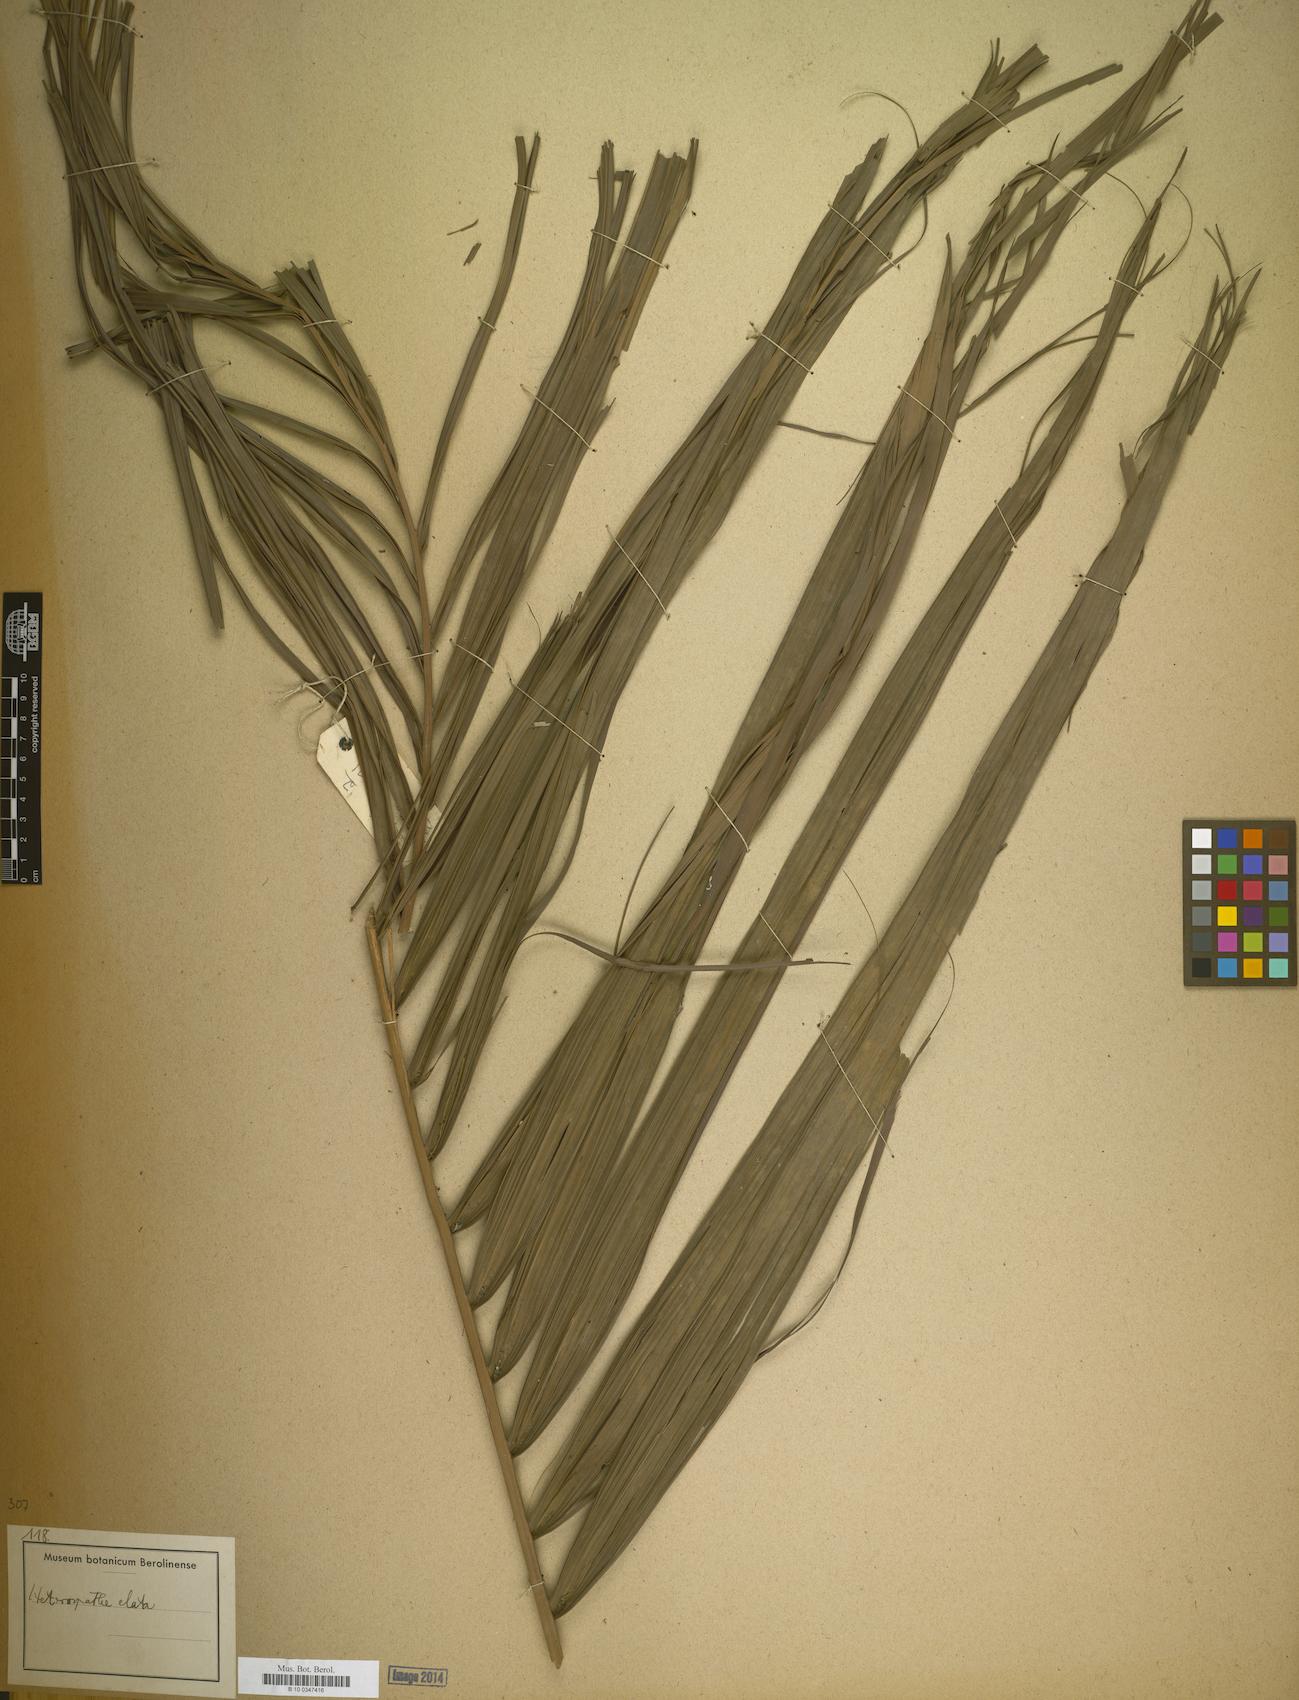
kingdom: Plantae
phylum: Tracheophyta
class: Liliopsida
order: Arecales
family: Arecaceae
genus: Heterospathe
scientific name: Heterospathe elata
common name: Sagisi palm
